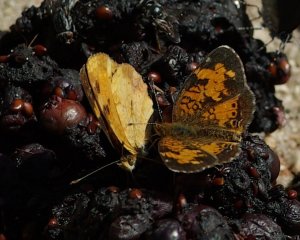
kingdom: Animalia
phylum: Arthropoda
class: Insecta
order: Lepidoptera
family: Nymphalidae
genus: Phyciodes
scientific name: Phyciodes tharos
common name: Northern Crescent
